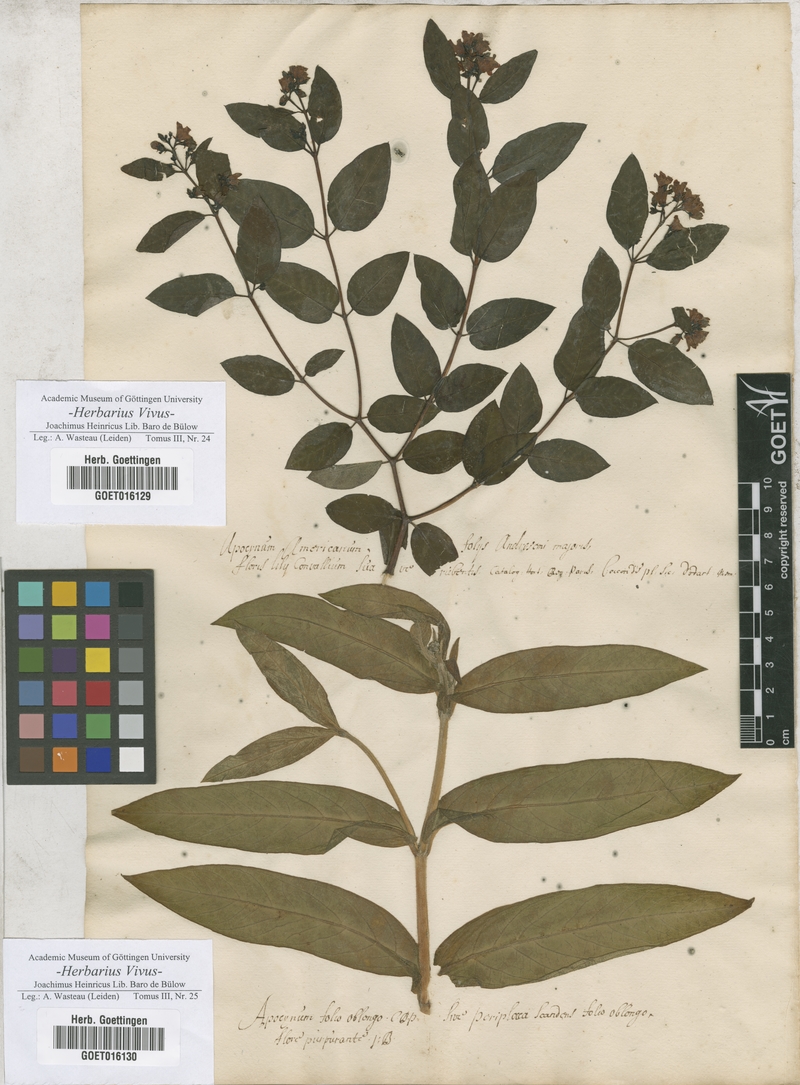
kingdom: Plantae
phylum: Tracheophyta
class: Magnoliopsida
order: Gentianales
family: Apocynaceae
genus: Apocynum
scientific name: Apocynum androsaemifolium
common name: Spreading dogbane
